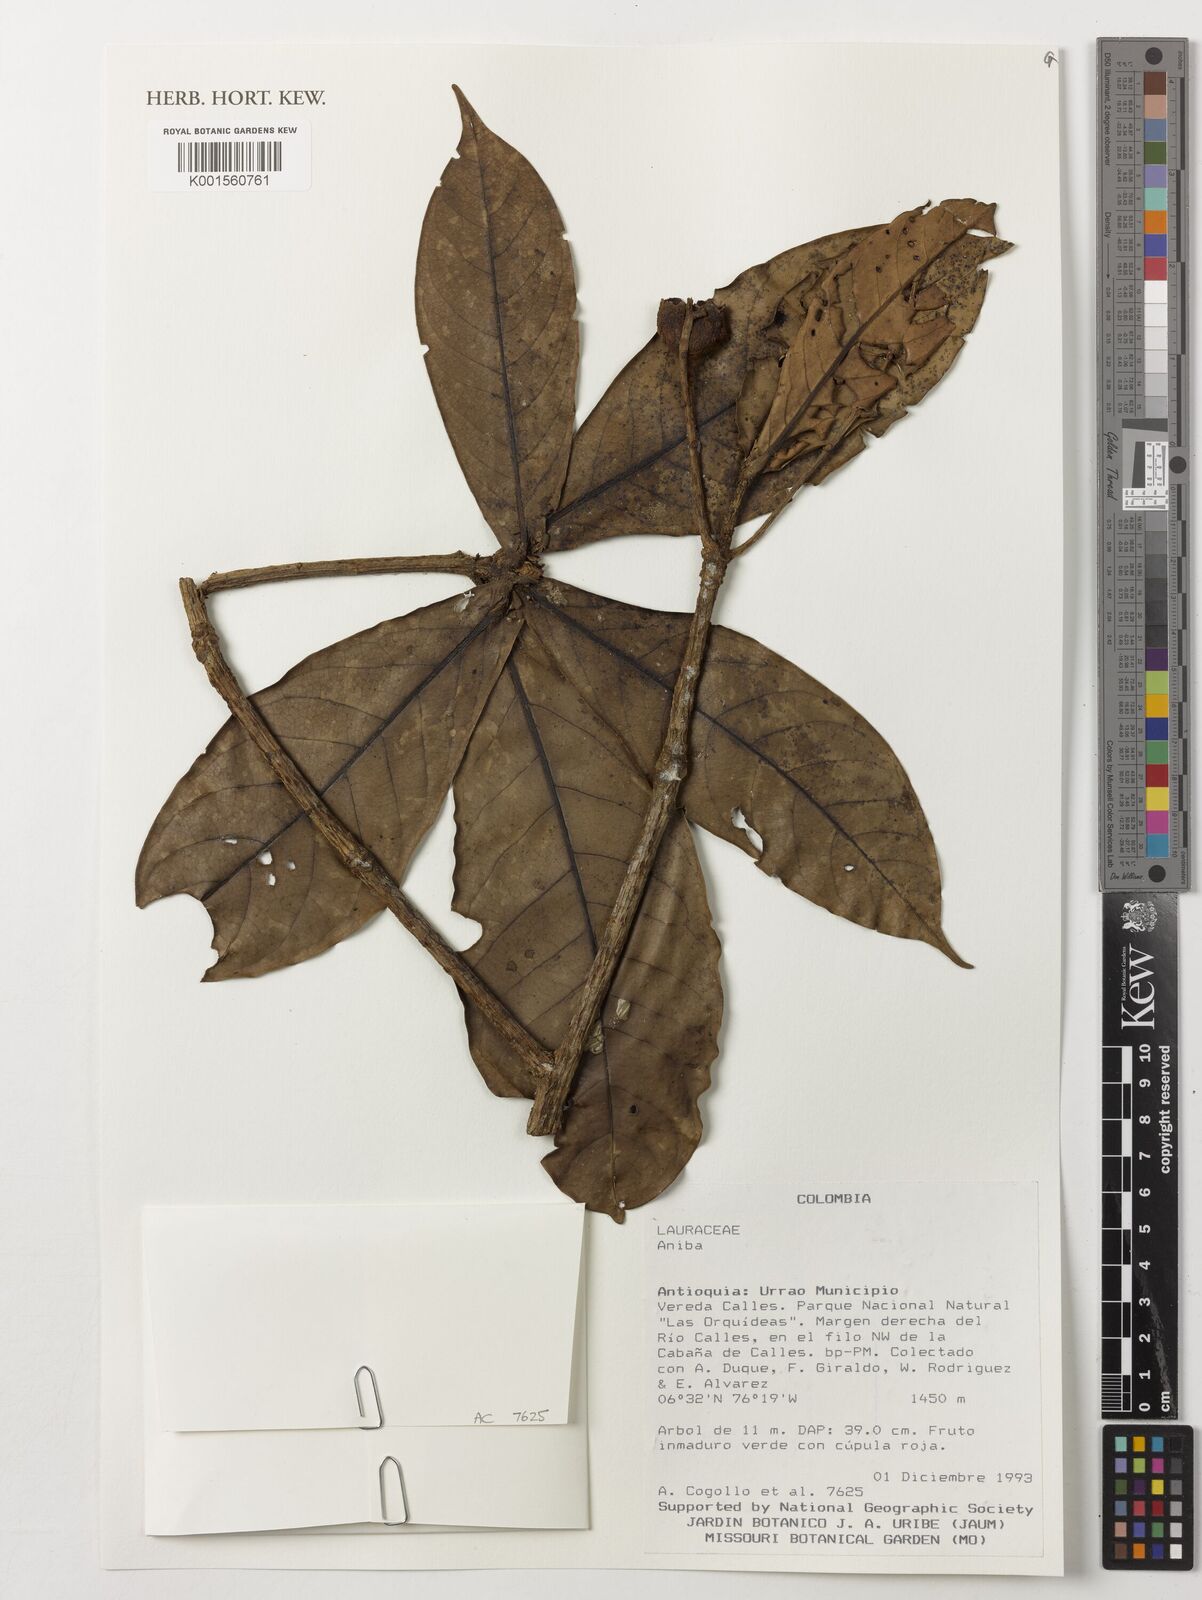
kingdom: Plantae
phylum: Tracheophyta
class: Magnoliopsida
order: Laurales
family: Lauraceae
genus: Aniba
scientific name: Aniba
